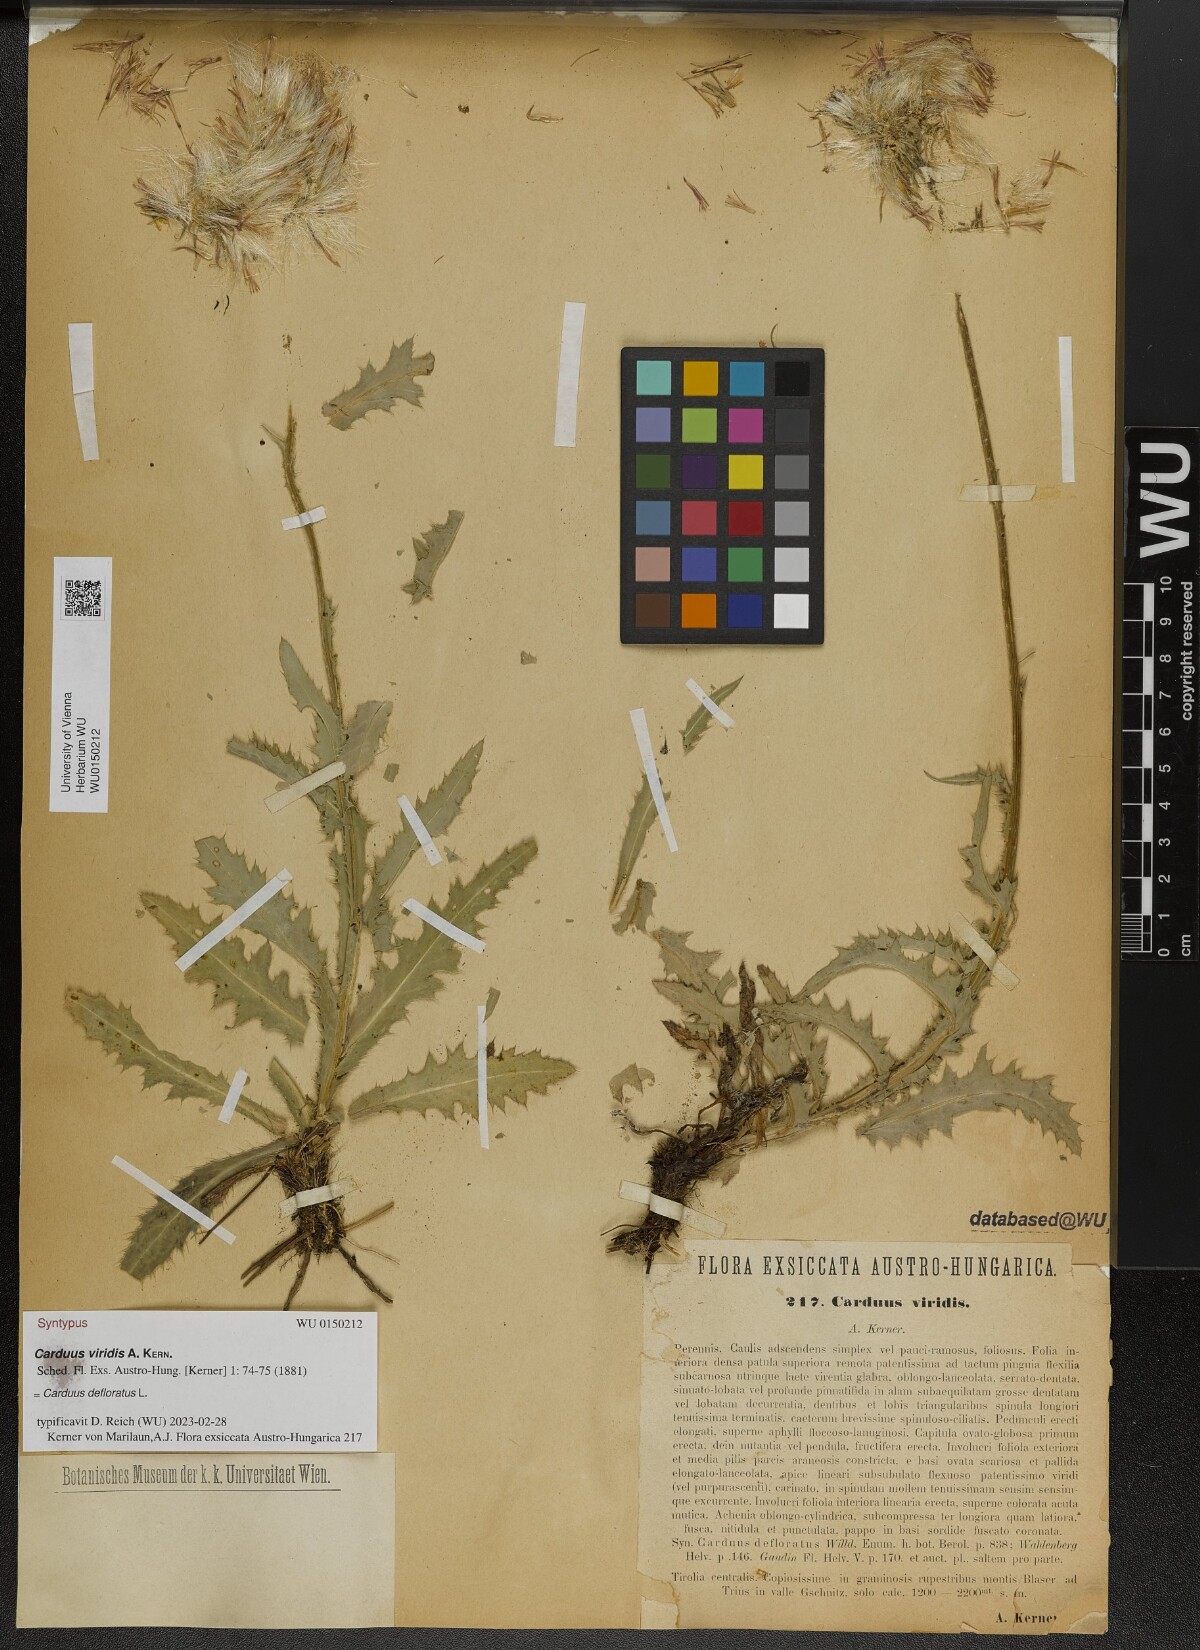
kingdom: Plantae
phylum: Tracheophyta
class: Magnoliopsida
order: Asterales
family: Asteraceae
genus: Carduus
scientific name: Carduus defloratus
